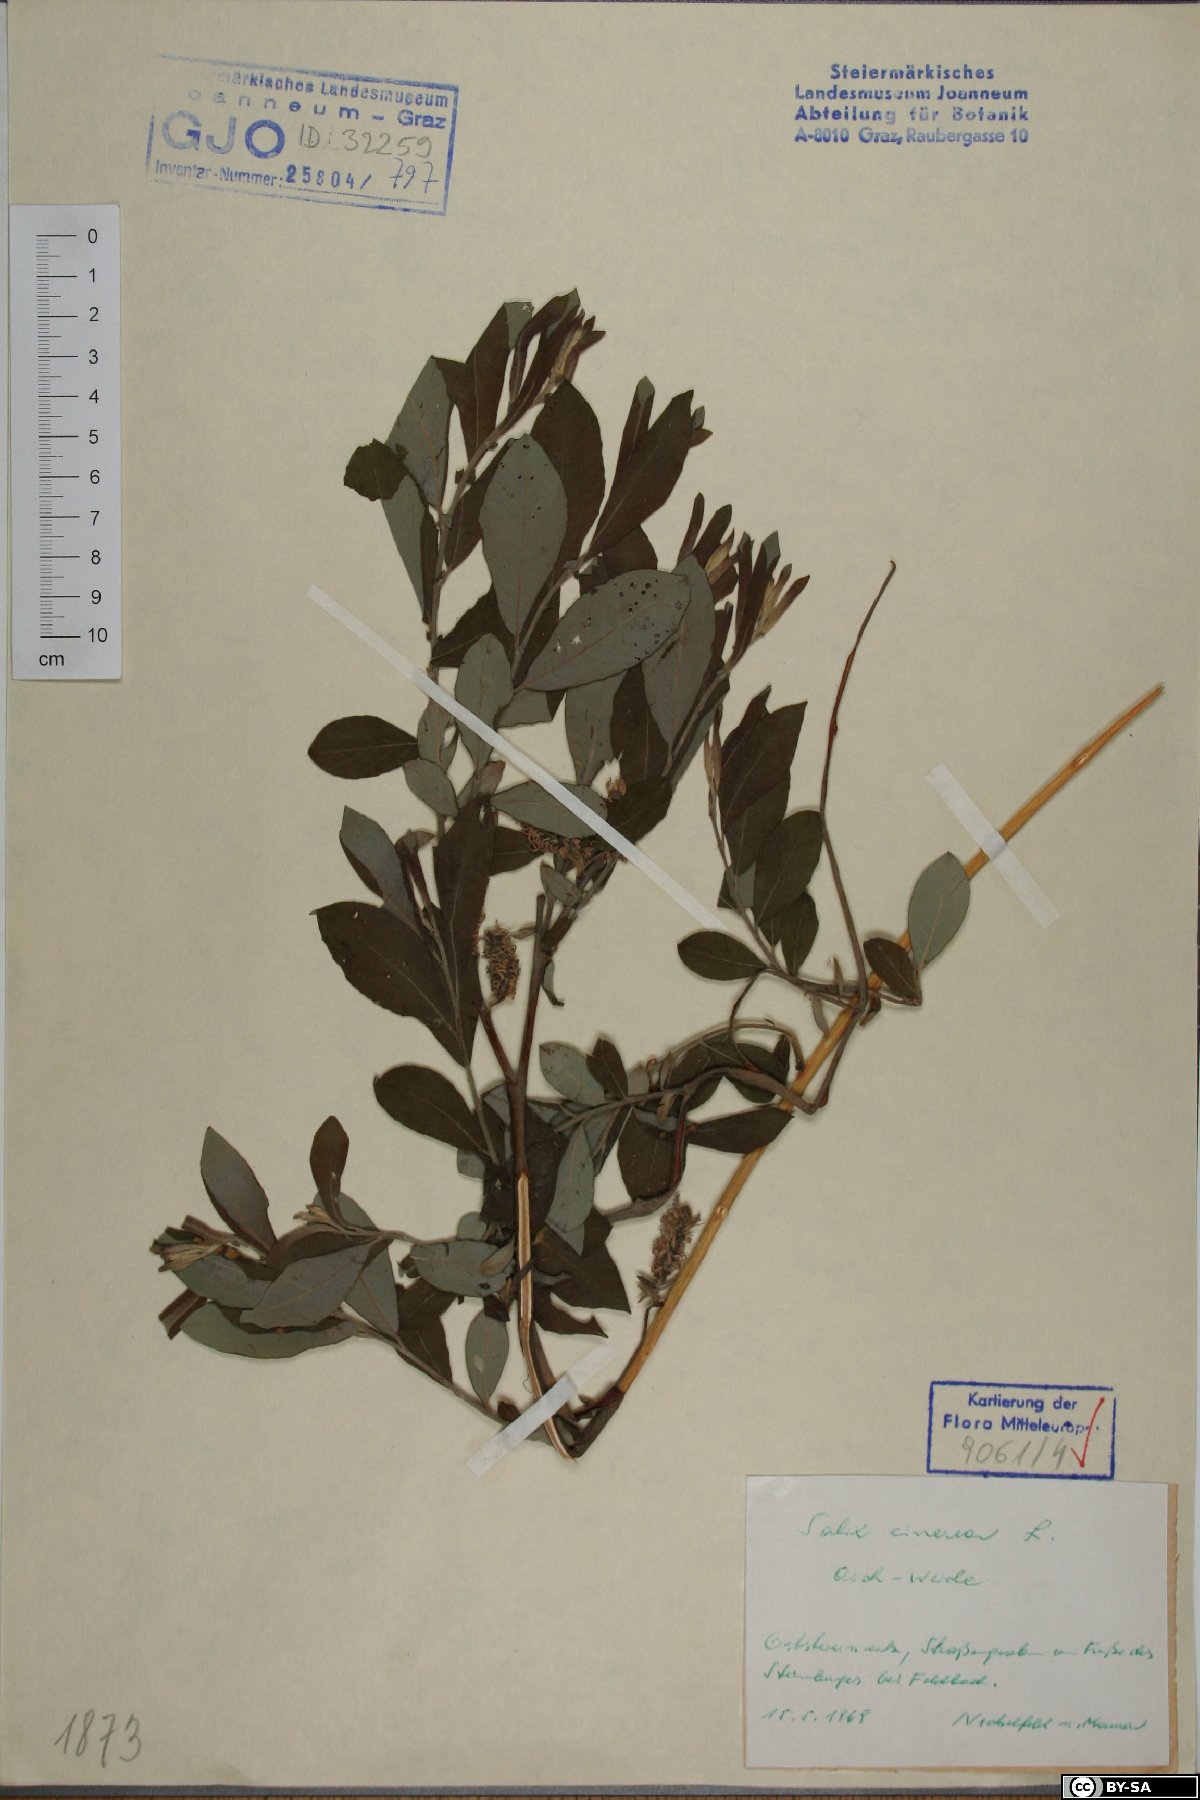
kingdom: Plantae
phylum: Tracheophyta
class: Magnoliopsida
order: Malpighiales
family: Salicaceae
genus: Salix
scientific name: Salix cinerea
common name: Common sallow
